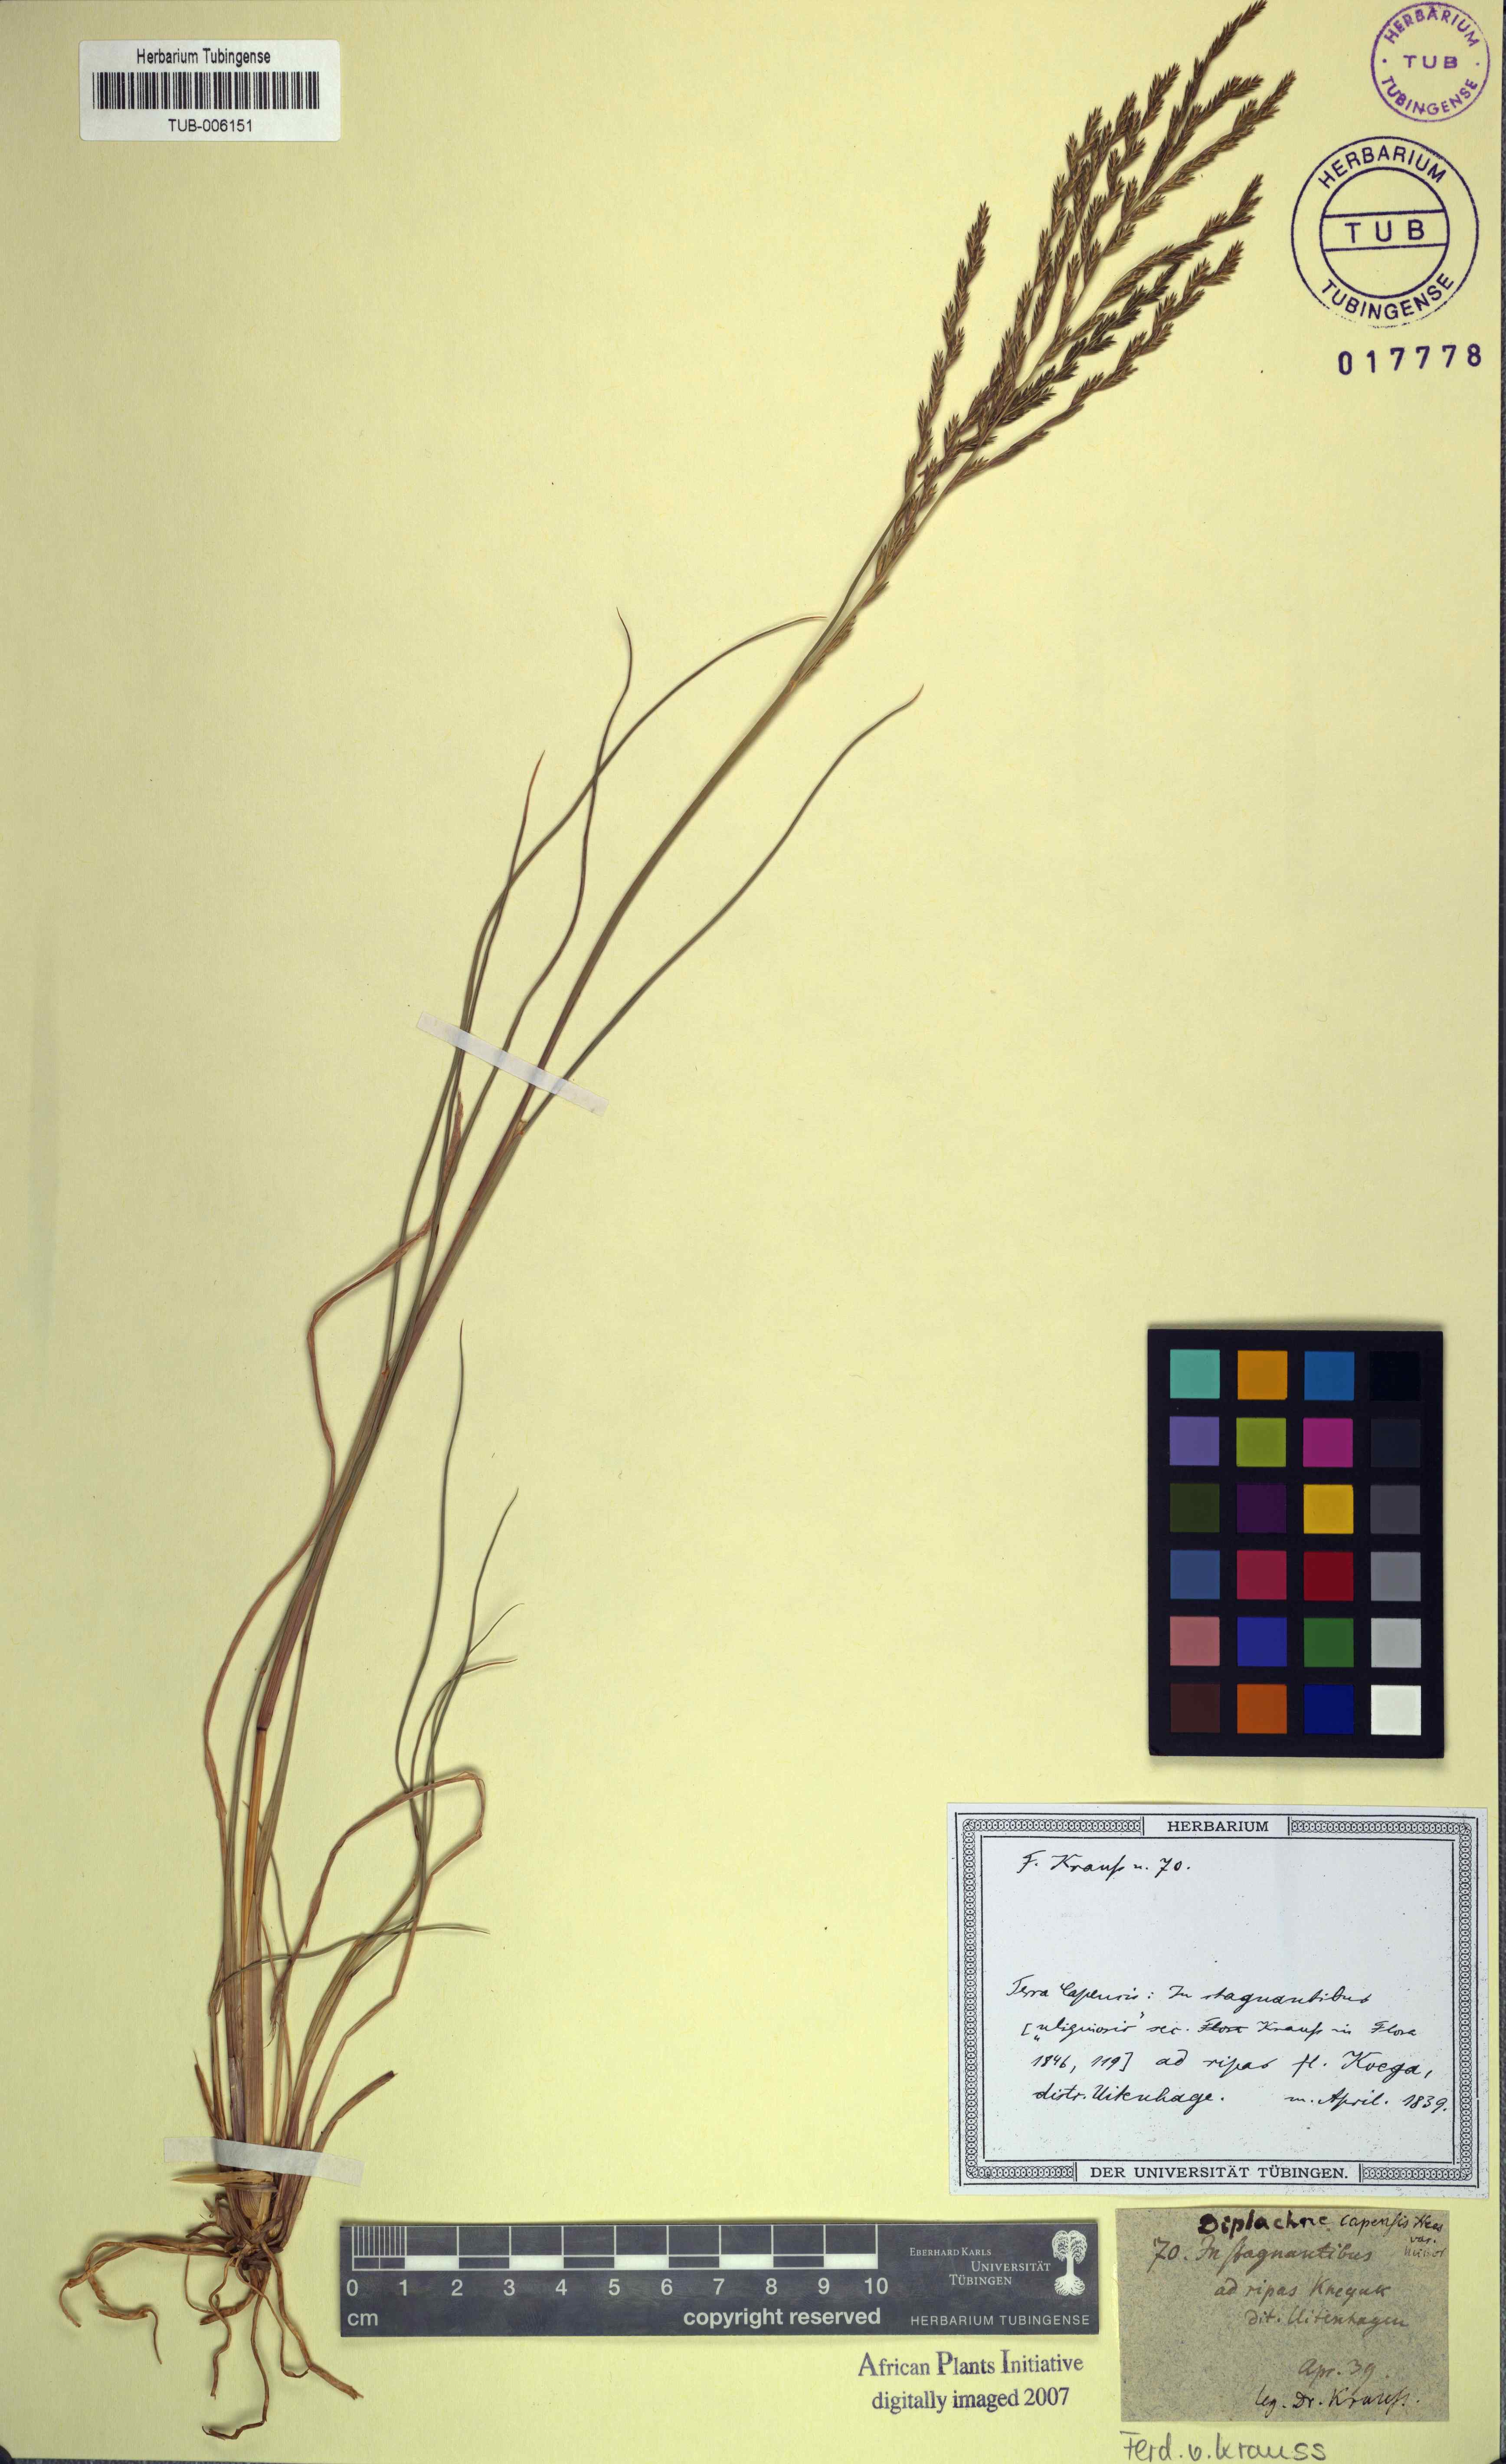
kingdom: Plantae
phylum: Tracheophyta
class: Liliopsida
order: Poales
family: Poaceae
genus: Diplachne
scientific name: Diplachne fusca
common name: Brown beetle grass
